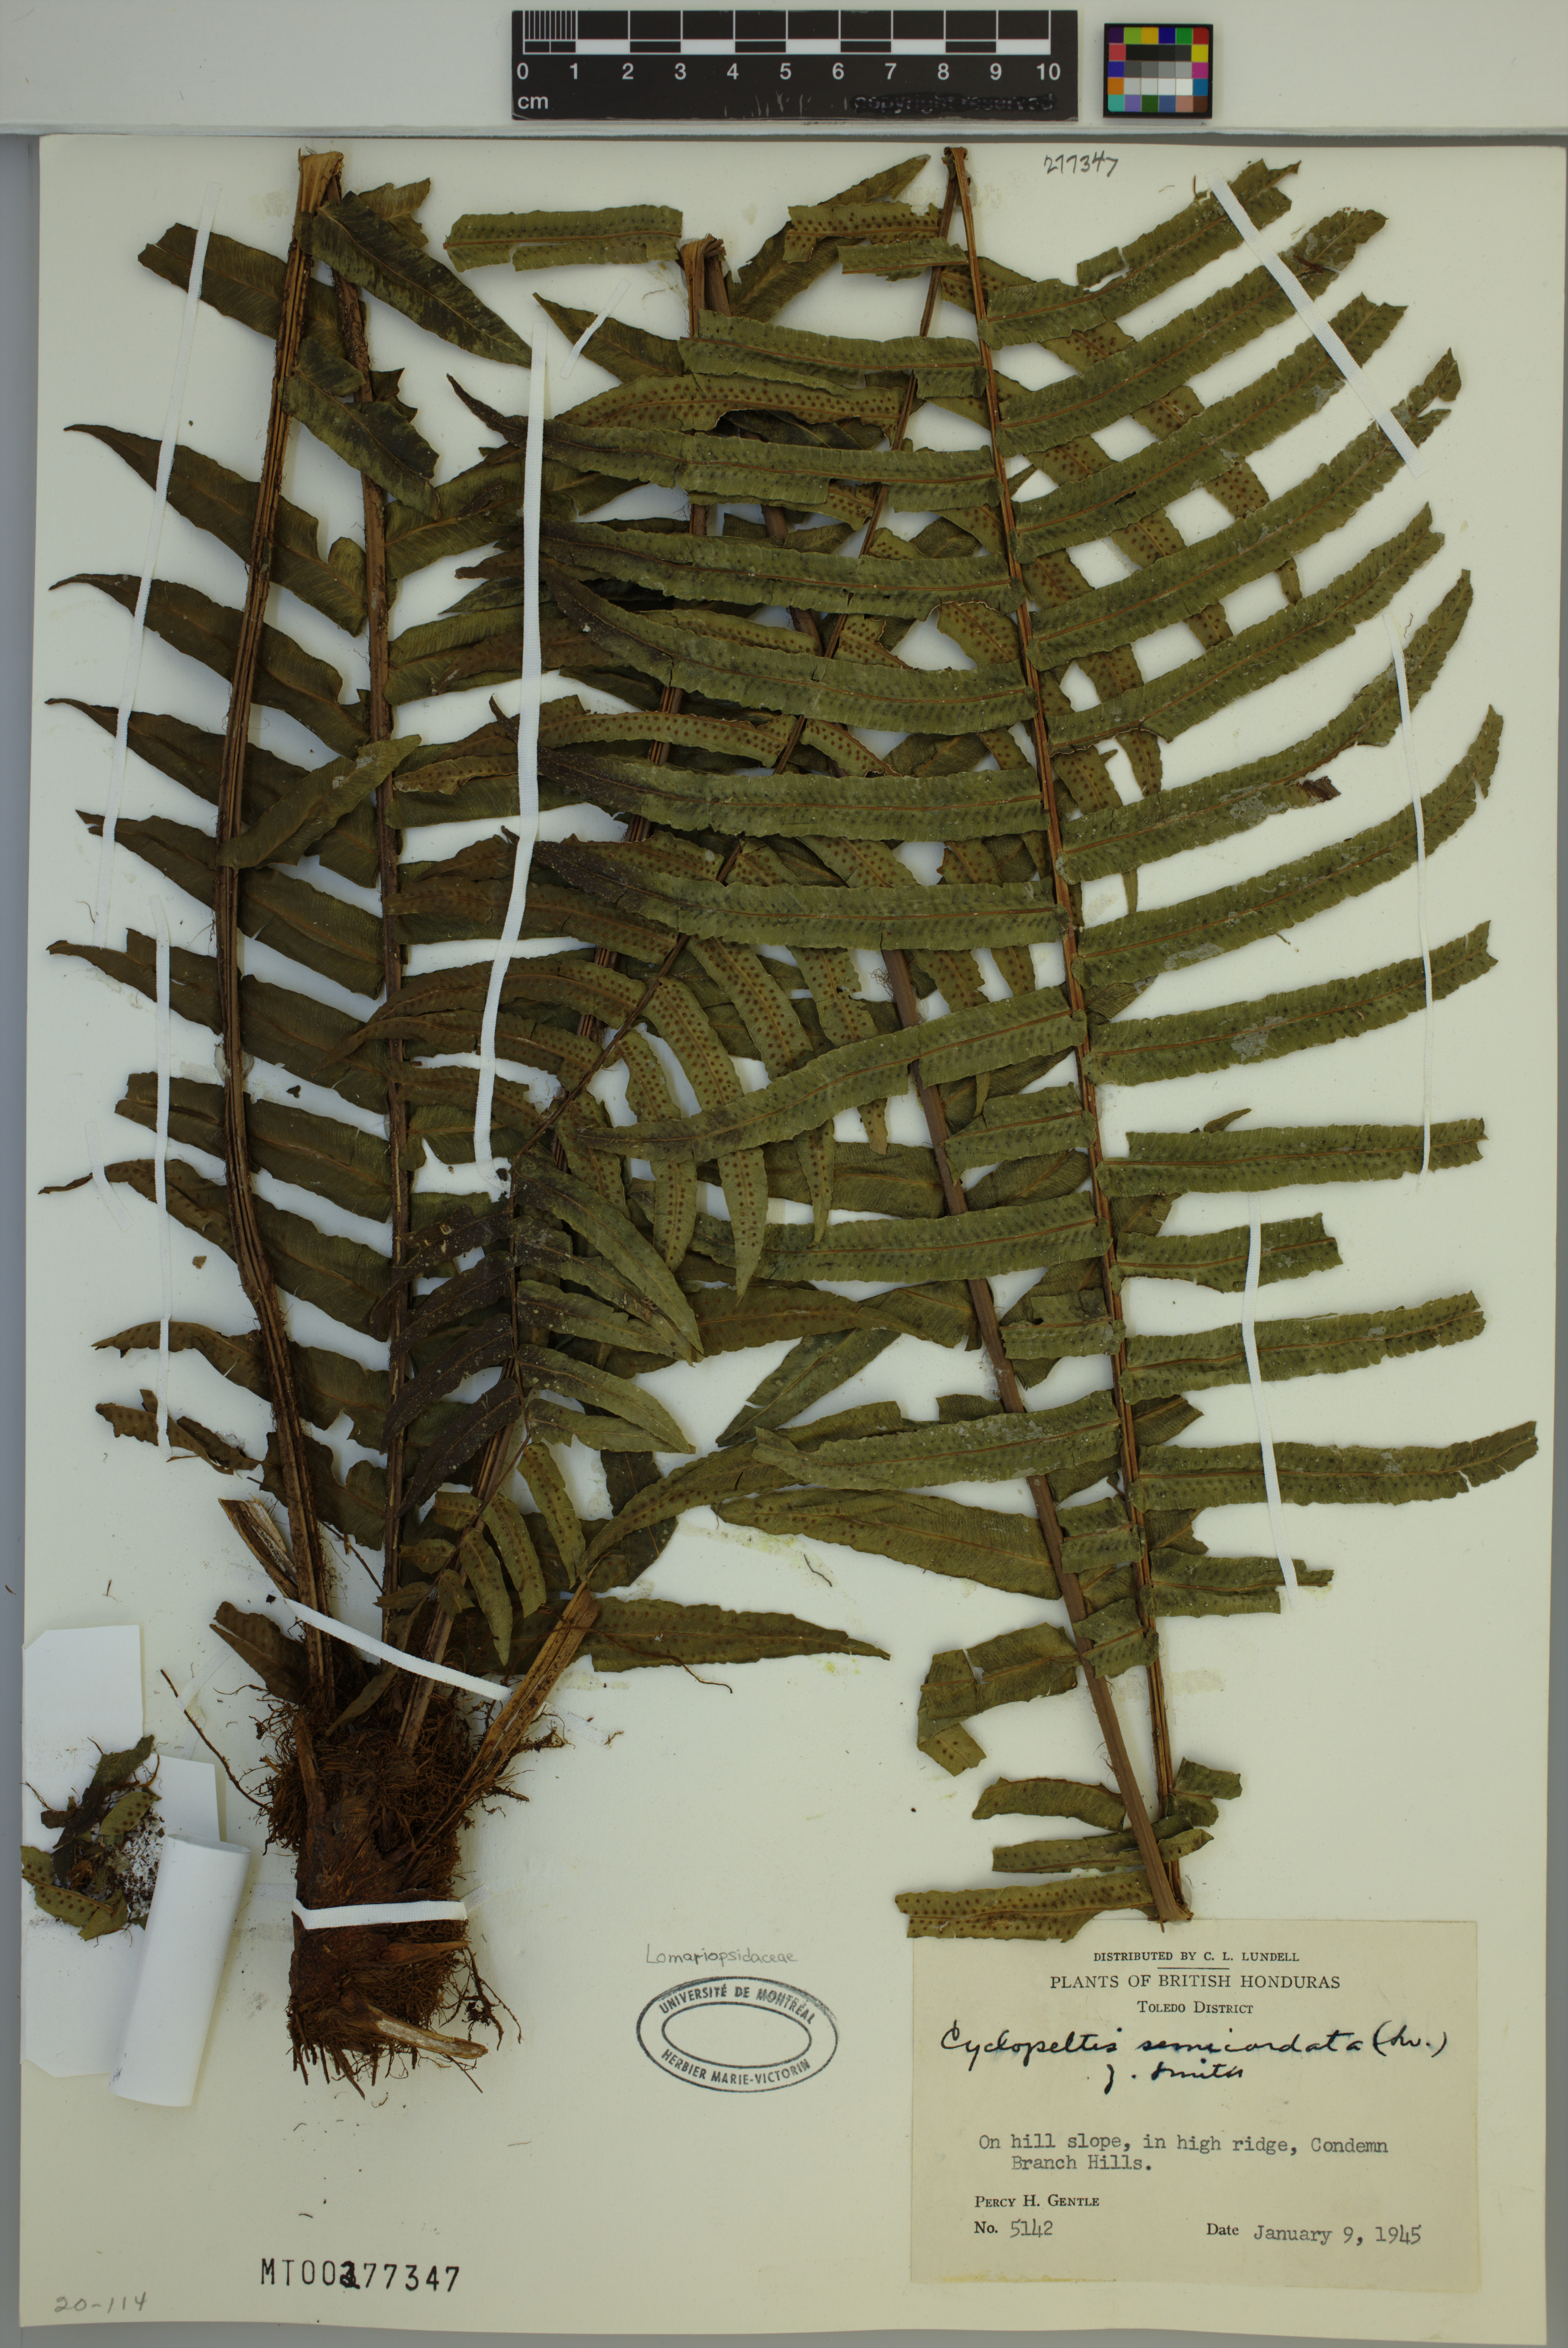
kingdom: Plantae
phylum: Tracheophyta
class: Polypodiopsida
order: Polypodiales
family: Lomariopsidaceae
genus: Cyclopeltis
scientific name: Cyclopeltis semicordata
